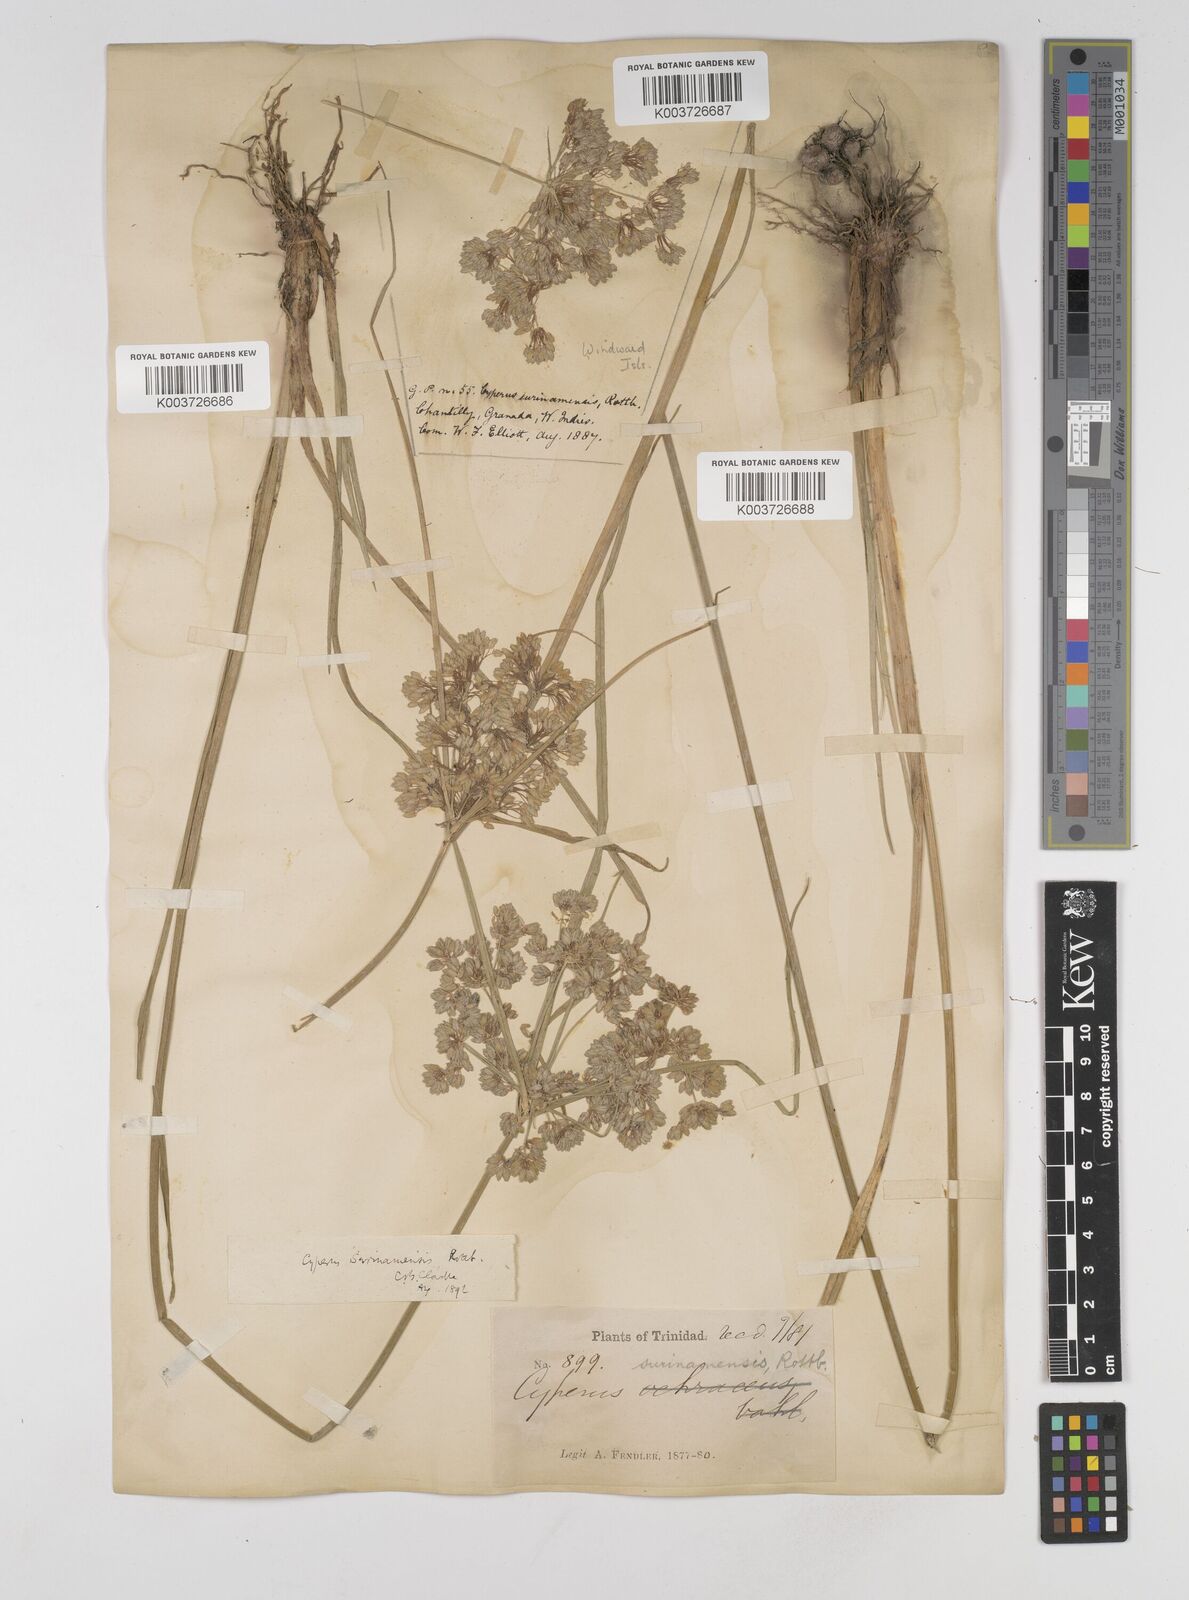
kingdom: Plantae
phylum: Tracheophyta
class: Liliopsida
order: Poales
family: Cyperaceae
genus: Cyperus
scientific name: Cyperus surinamensis
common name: Tropical flat sedge
